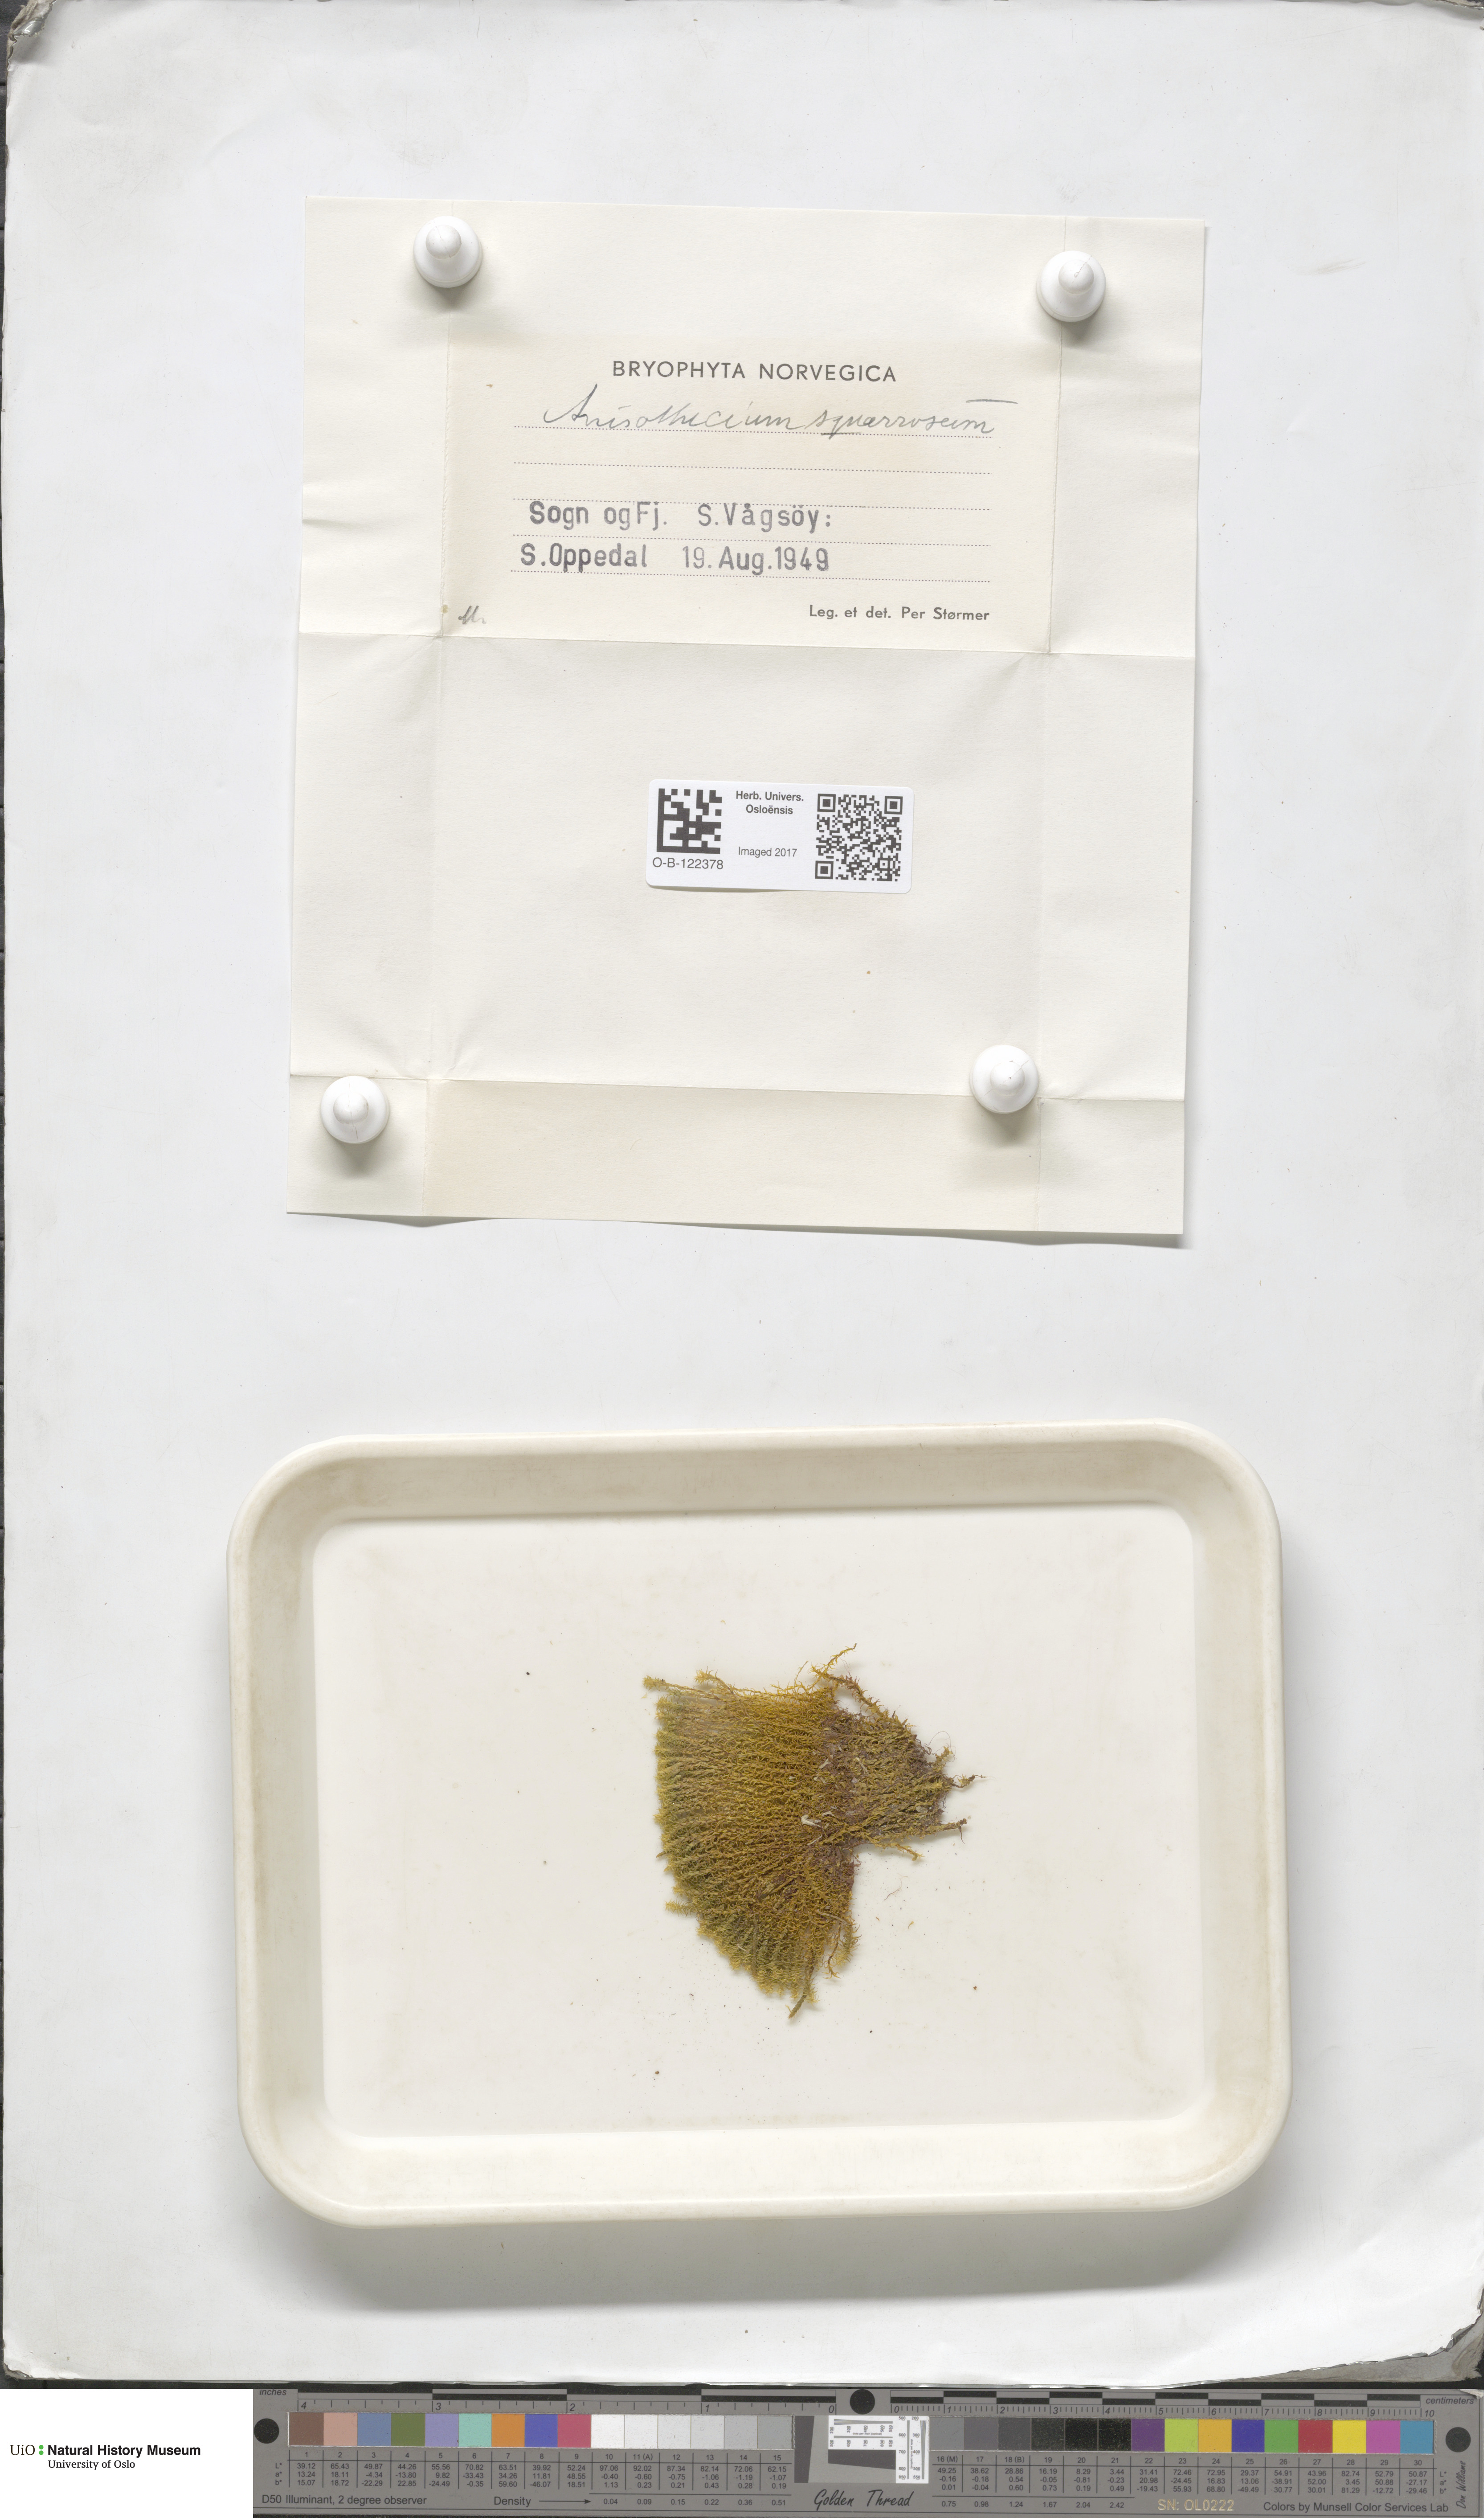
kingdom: Plantae
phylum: Bryophyta
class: Bryopsida
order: Dicranales
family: Aongstroemiaceae
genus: Diobelonella
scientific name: Diobelonella palustris
